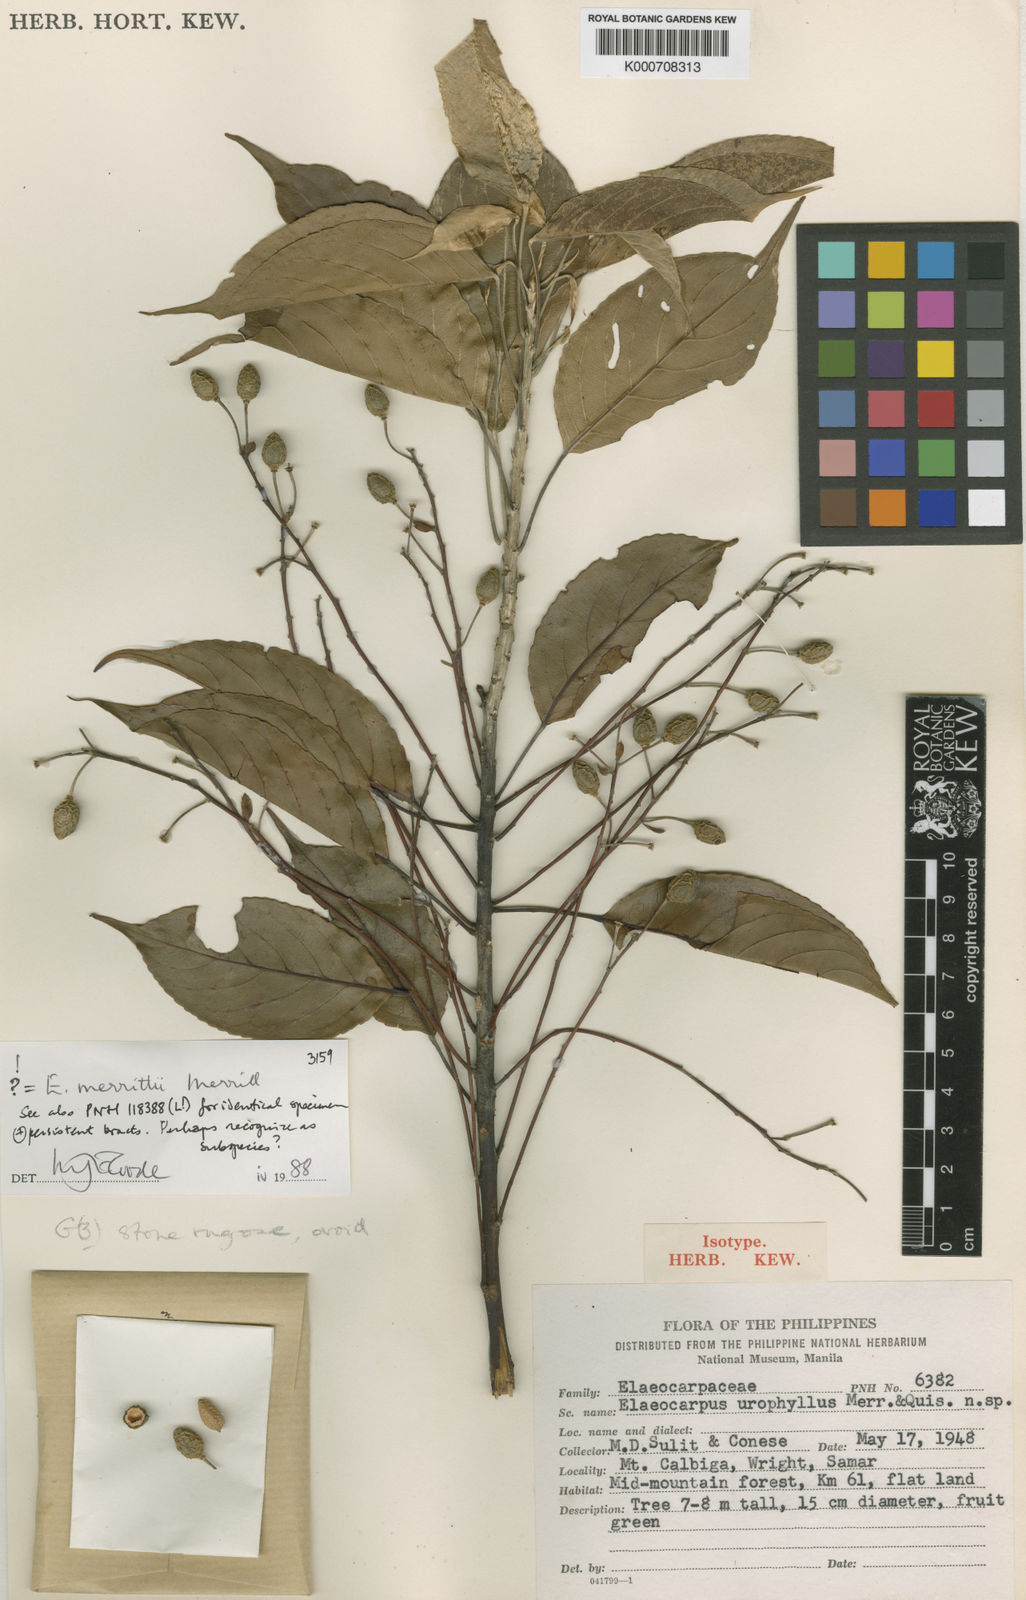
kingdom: Plantae
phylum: Tracheophyta
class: Magnoliopsida
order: Oxalidales
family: Elaeocarpaceae
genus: Elaeocarpus
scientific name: Elaeocarpus merrittii
